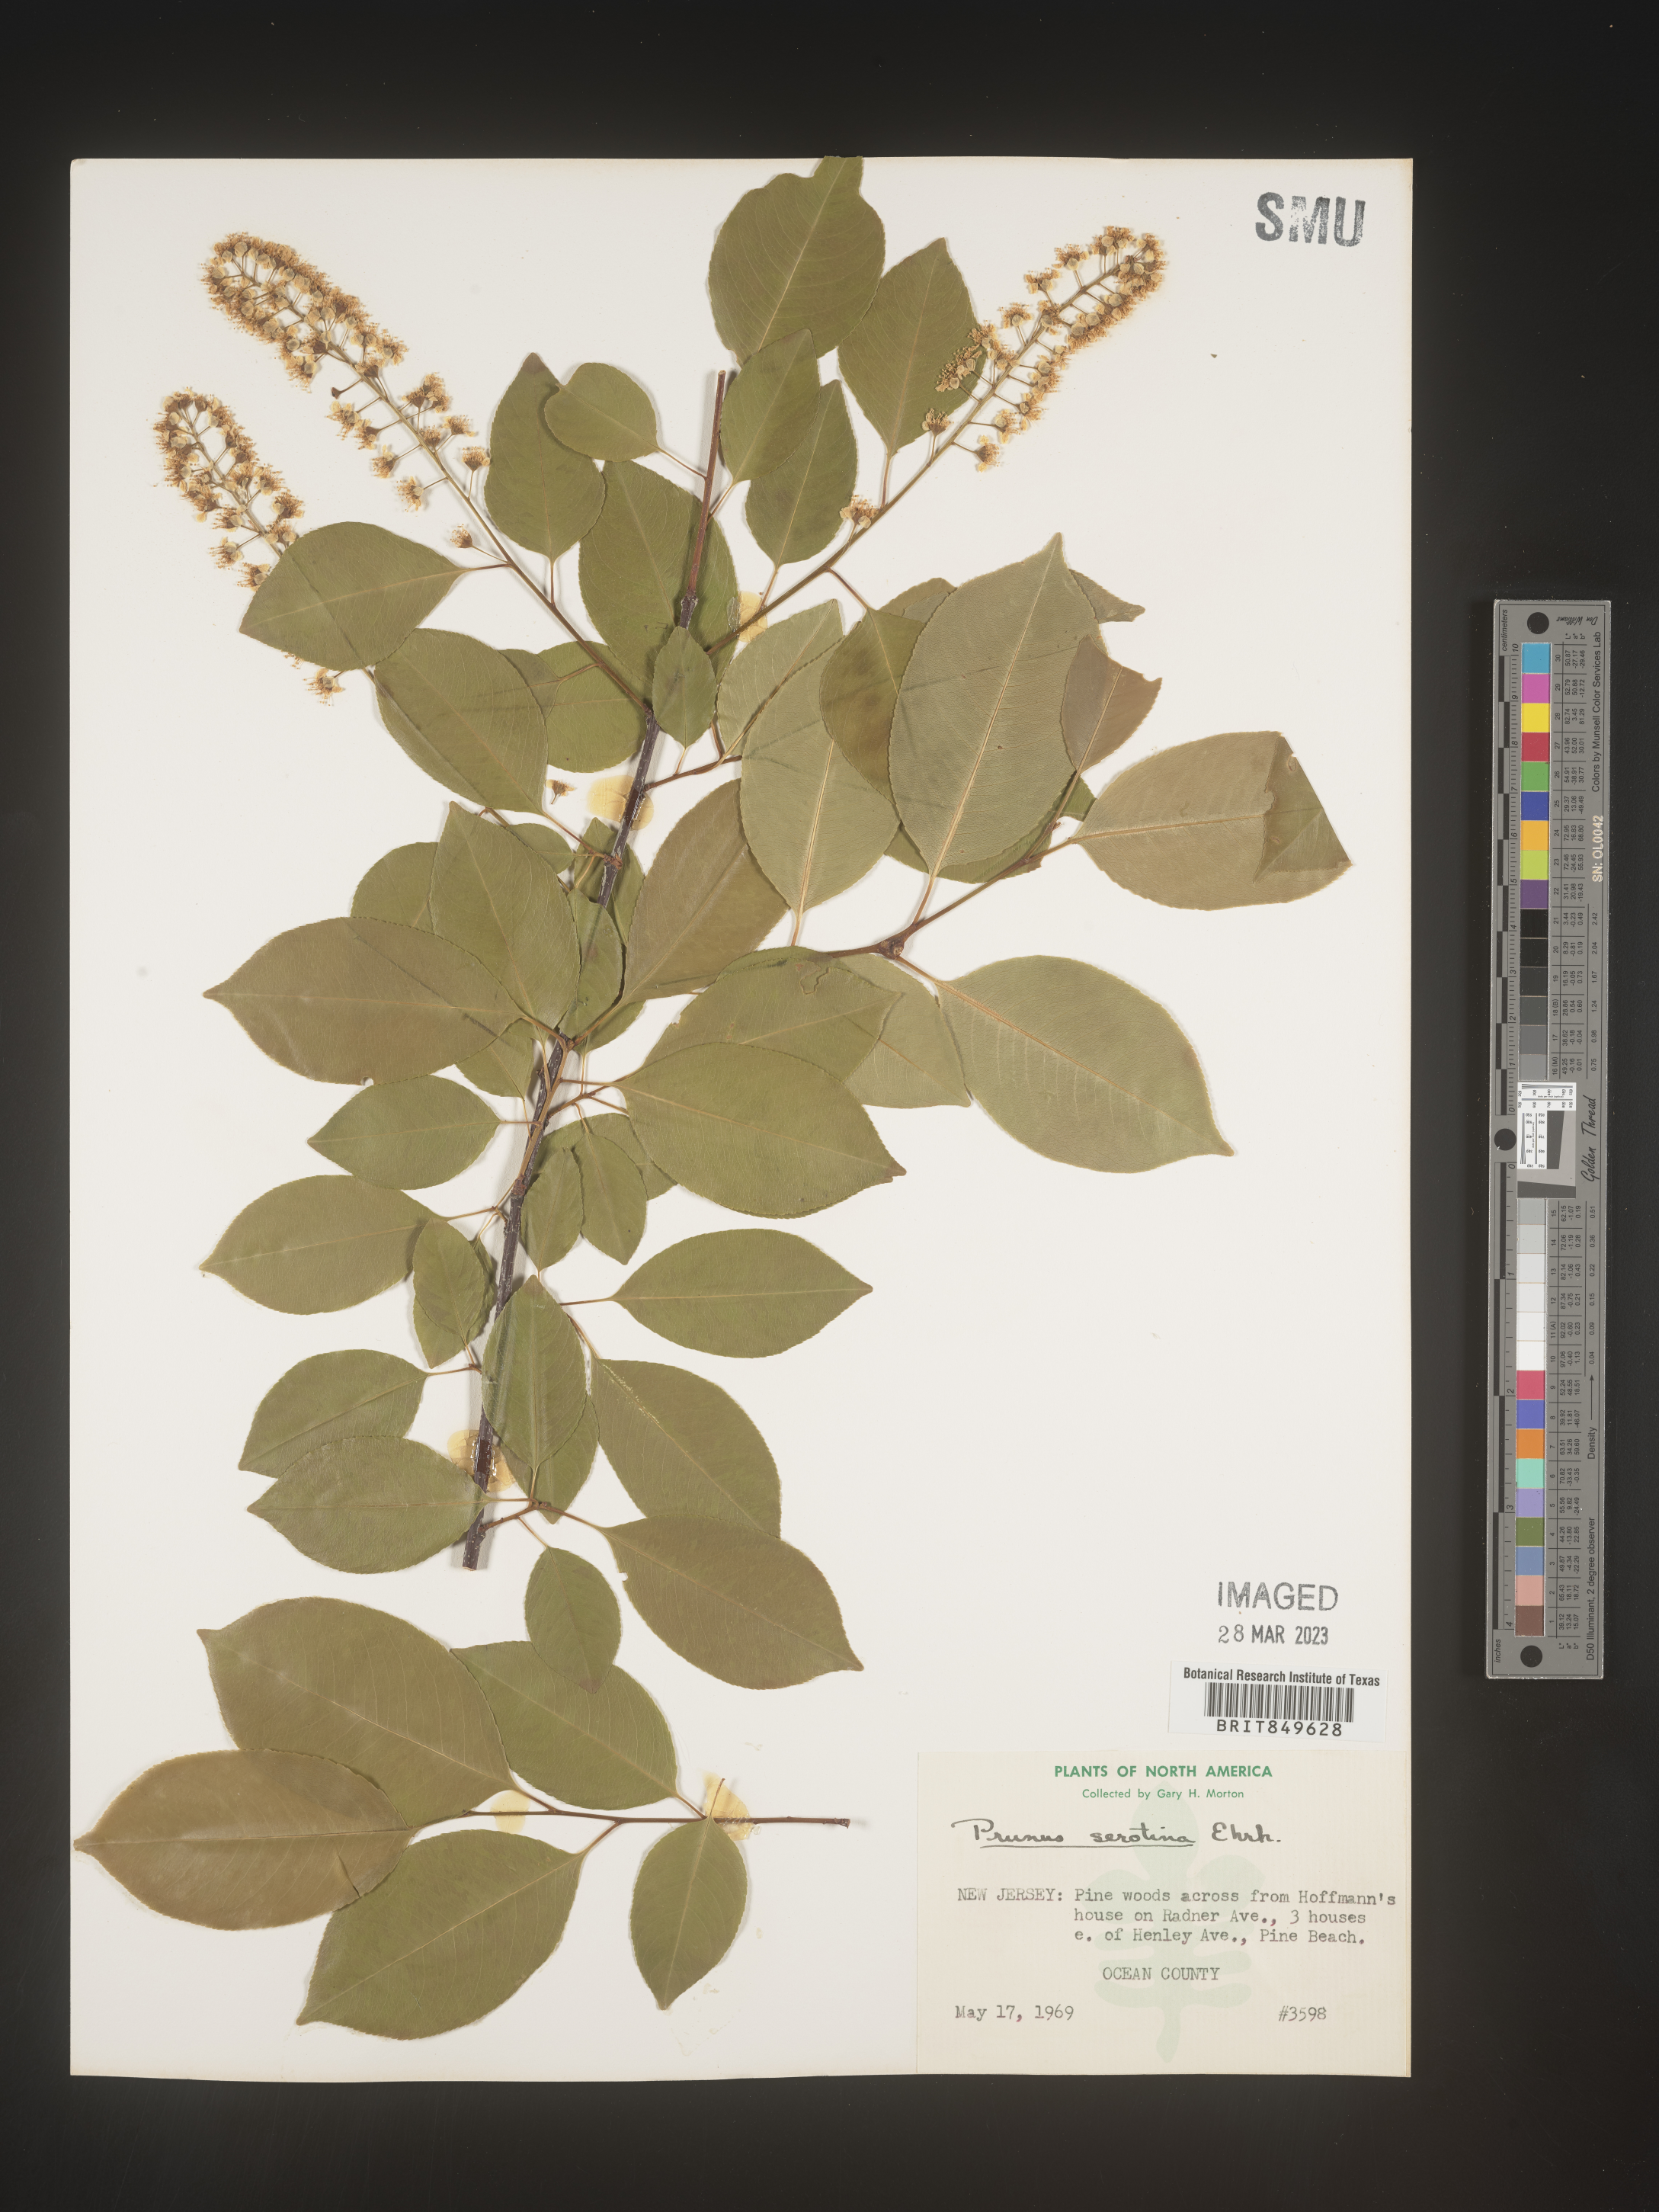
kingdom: Plantae
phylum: Tracheophyta
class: Magnoliopsida
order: Rosales
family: Rosaceae
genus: Prunus
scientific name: Prunus serotina
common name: Black cherry
